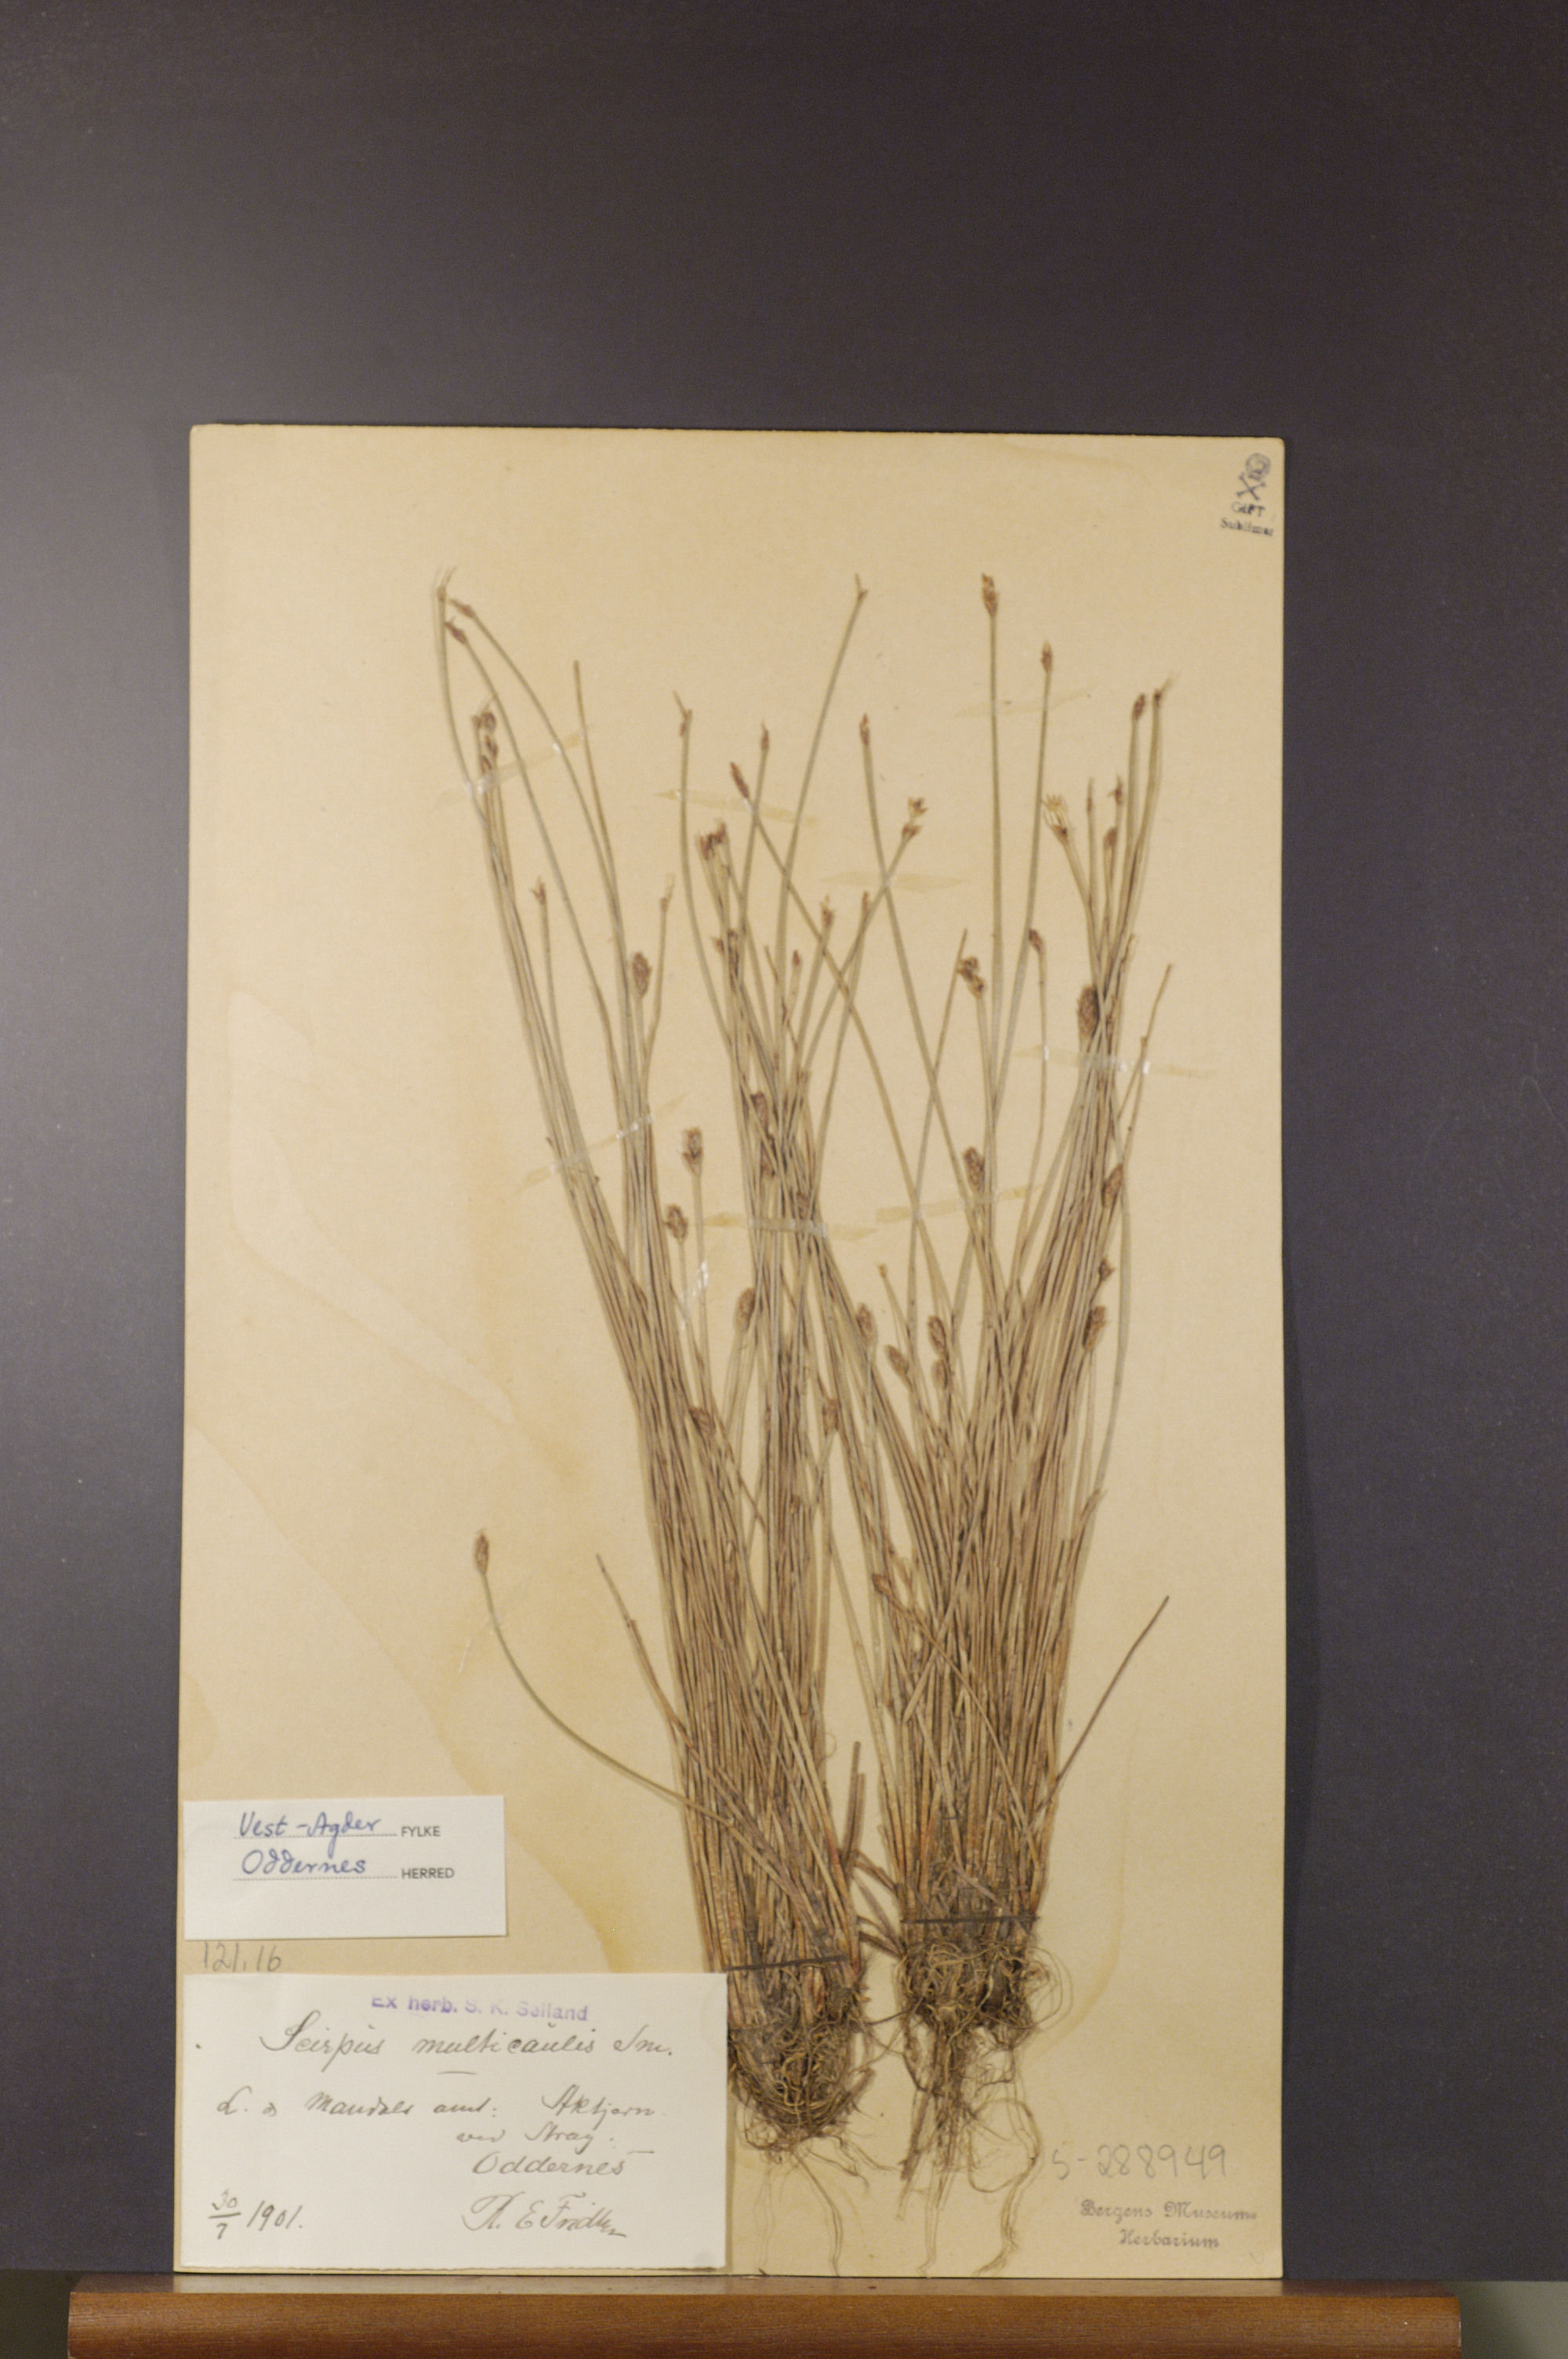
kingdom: Plantae
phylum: Tracheophyta
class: Liliopsida
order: Poales
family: Cyperaceae
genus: Eleocharis
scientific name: Eleocharis multicaulis
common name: Many-stalked spike-rush
